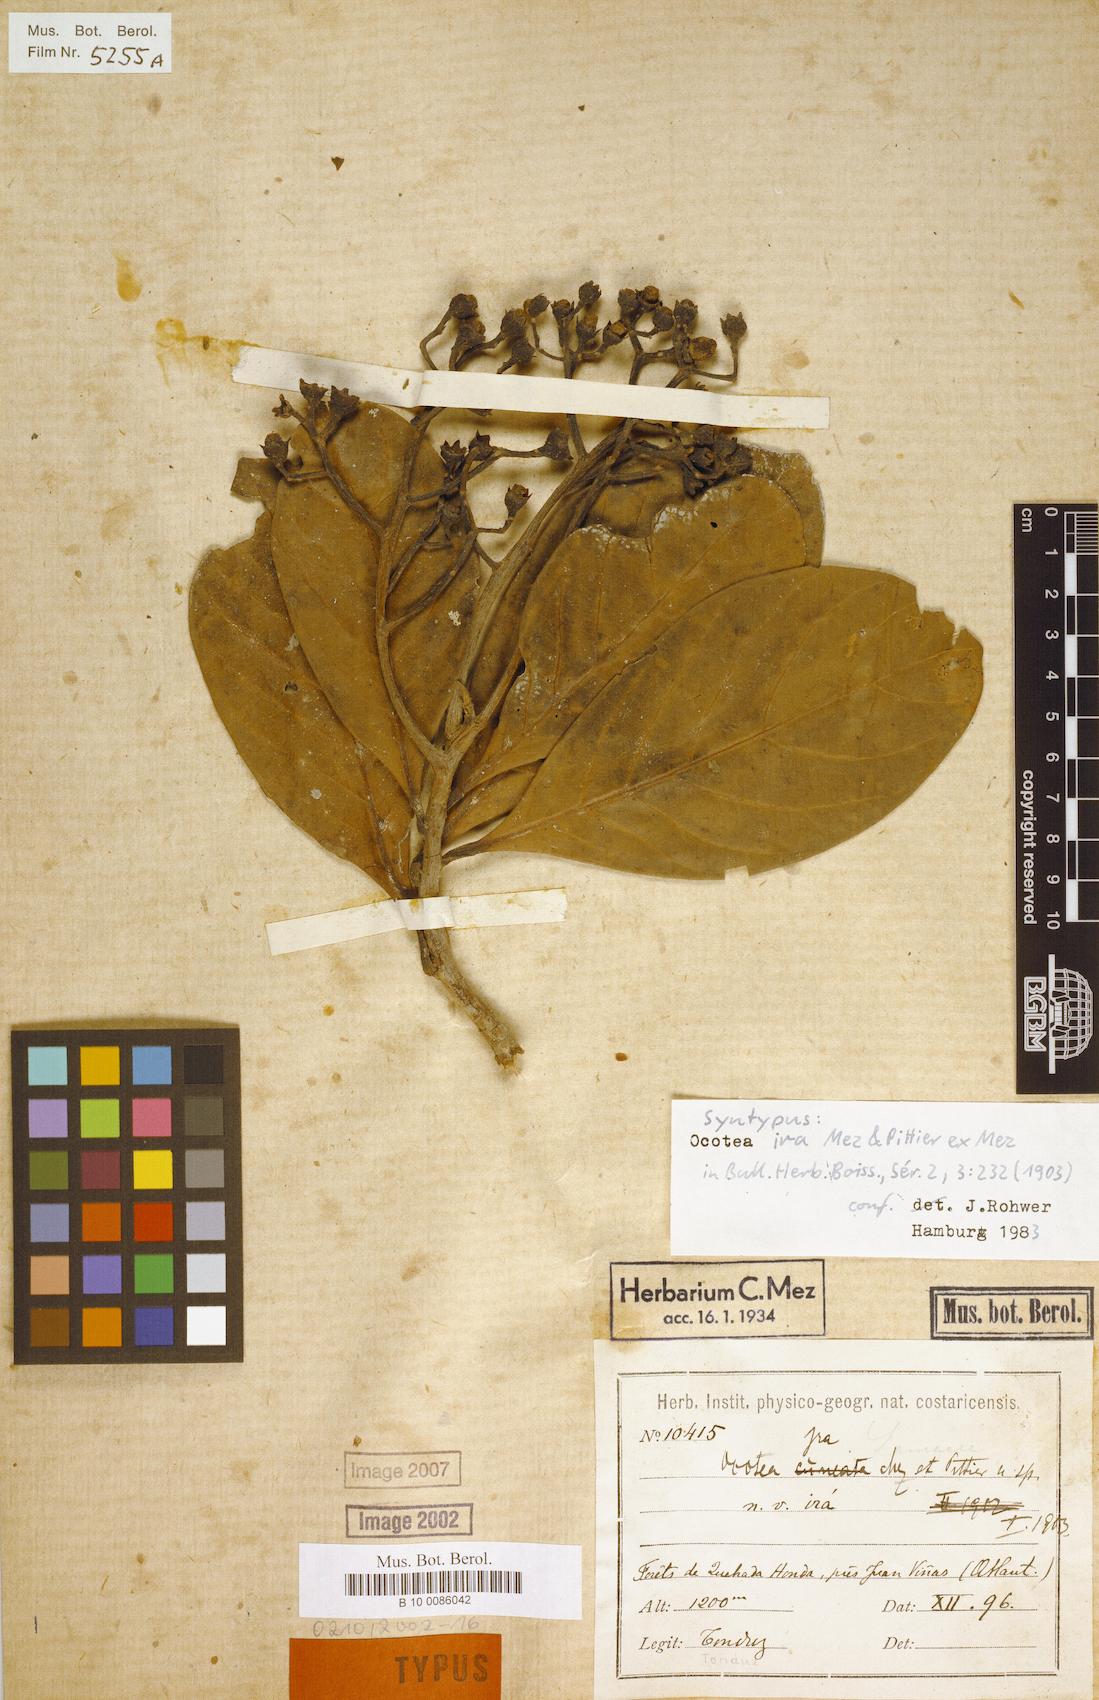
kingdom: Plantae
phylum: Tracheophyta
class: Magnoliopsida
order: Laurales
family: Lauraceae
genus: Ocotea
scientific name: Ocotea insularis
